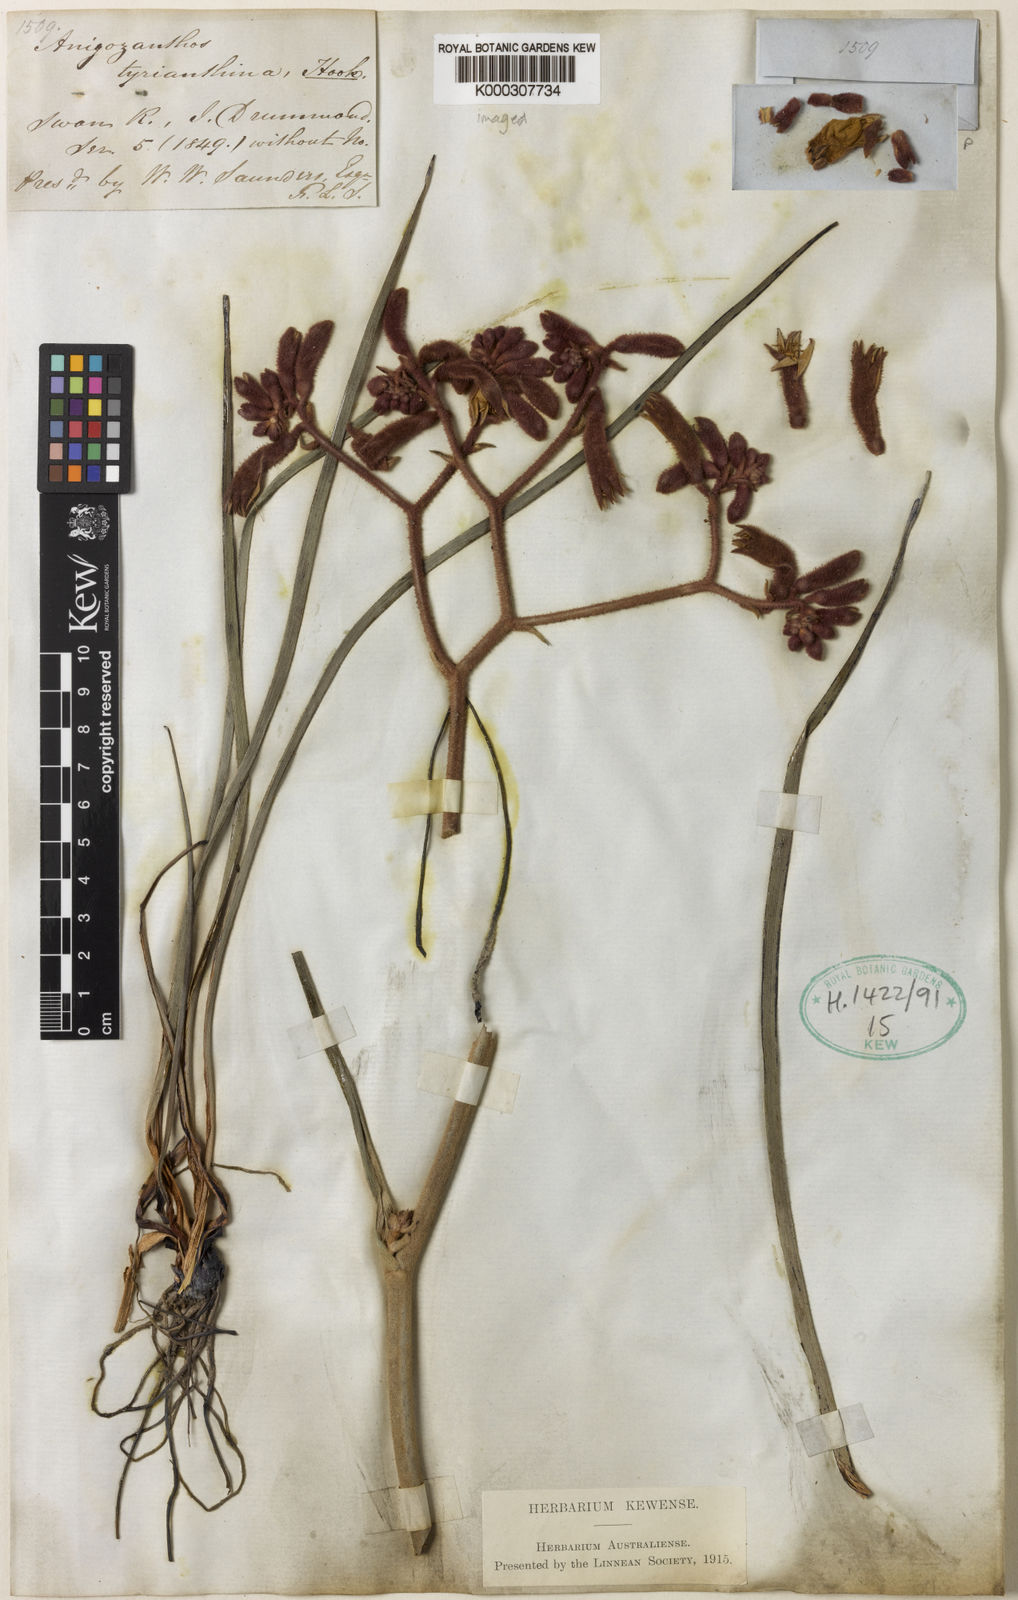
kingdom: Plantae
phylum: Tracheophyta
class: Liliopsida
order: Commelinales
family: Haemodoraceae
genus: Anigozanthos
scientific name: Anigozanthos rufus
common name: Red kangaroo-paw
